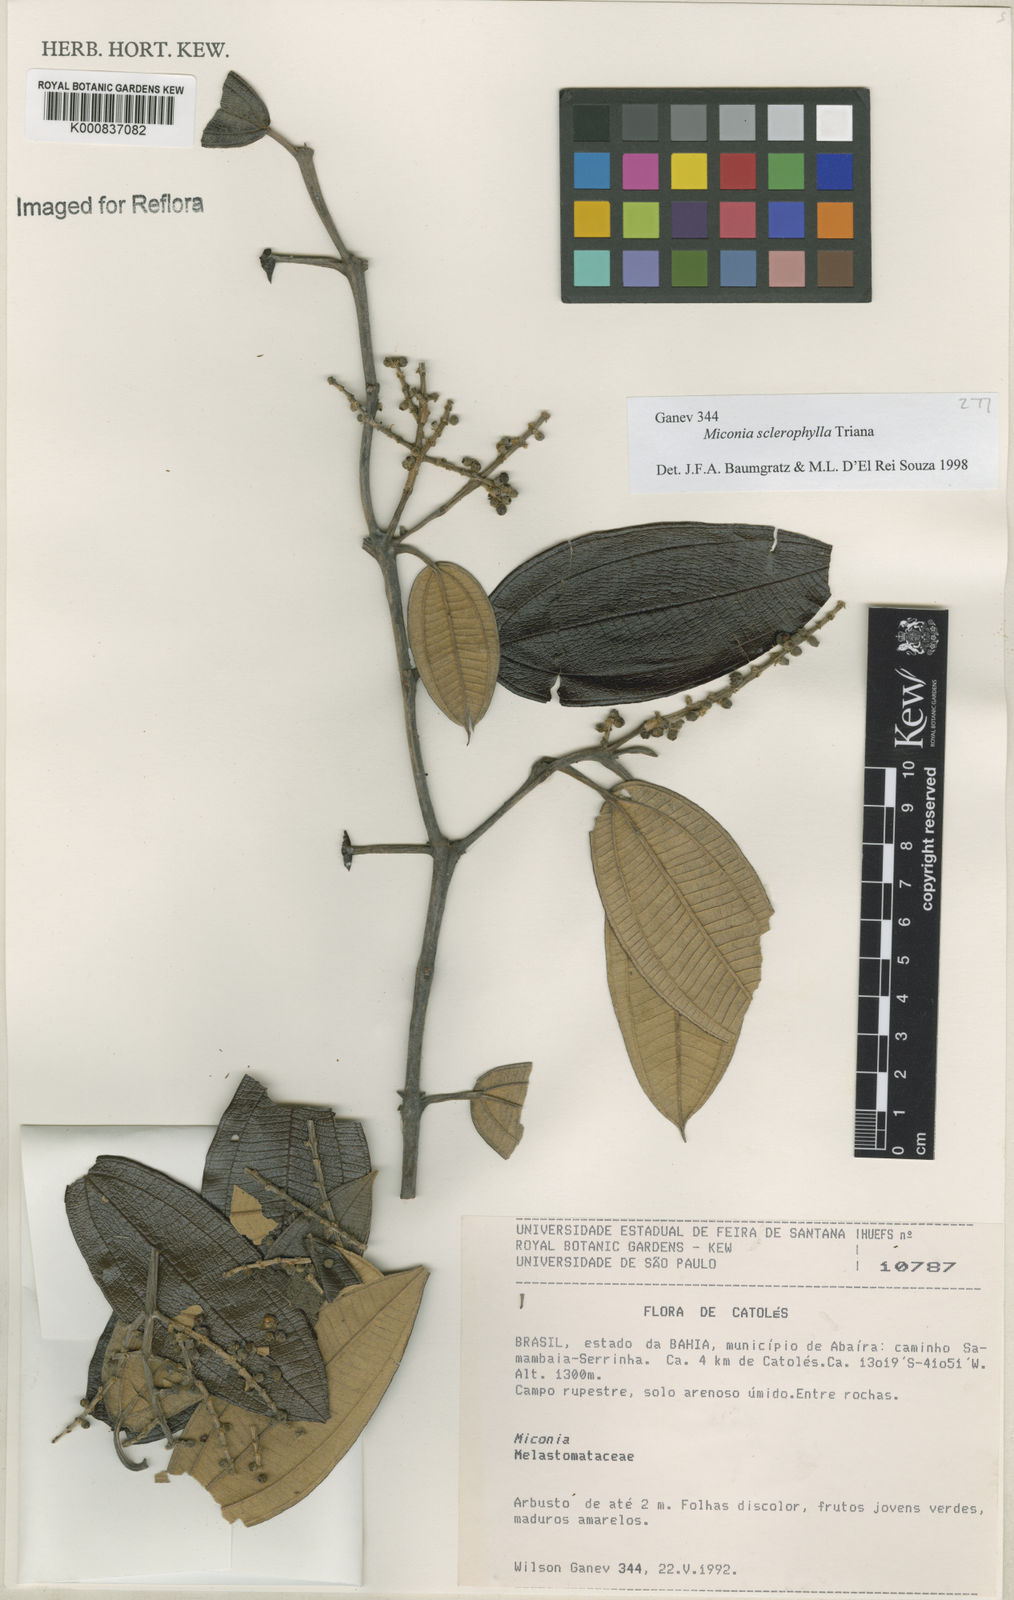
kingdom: Plantae
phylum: Tracheophyta
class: Magnoliopsida
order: Myrtales
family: Melastomataceae
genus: Miconia
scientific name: Miconia sclerophylla
